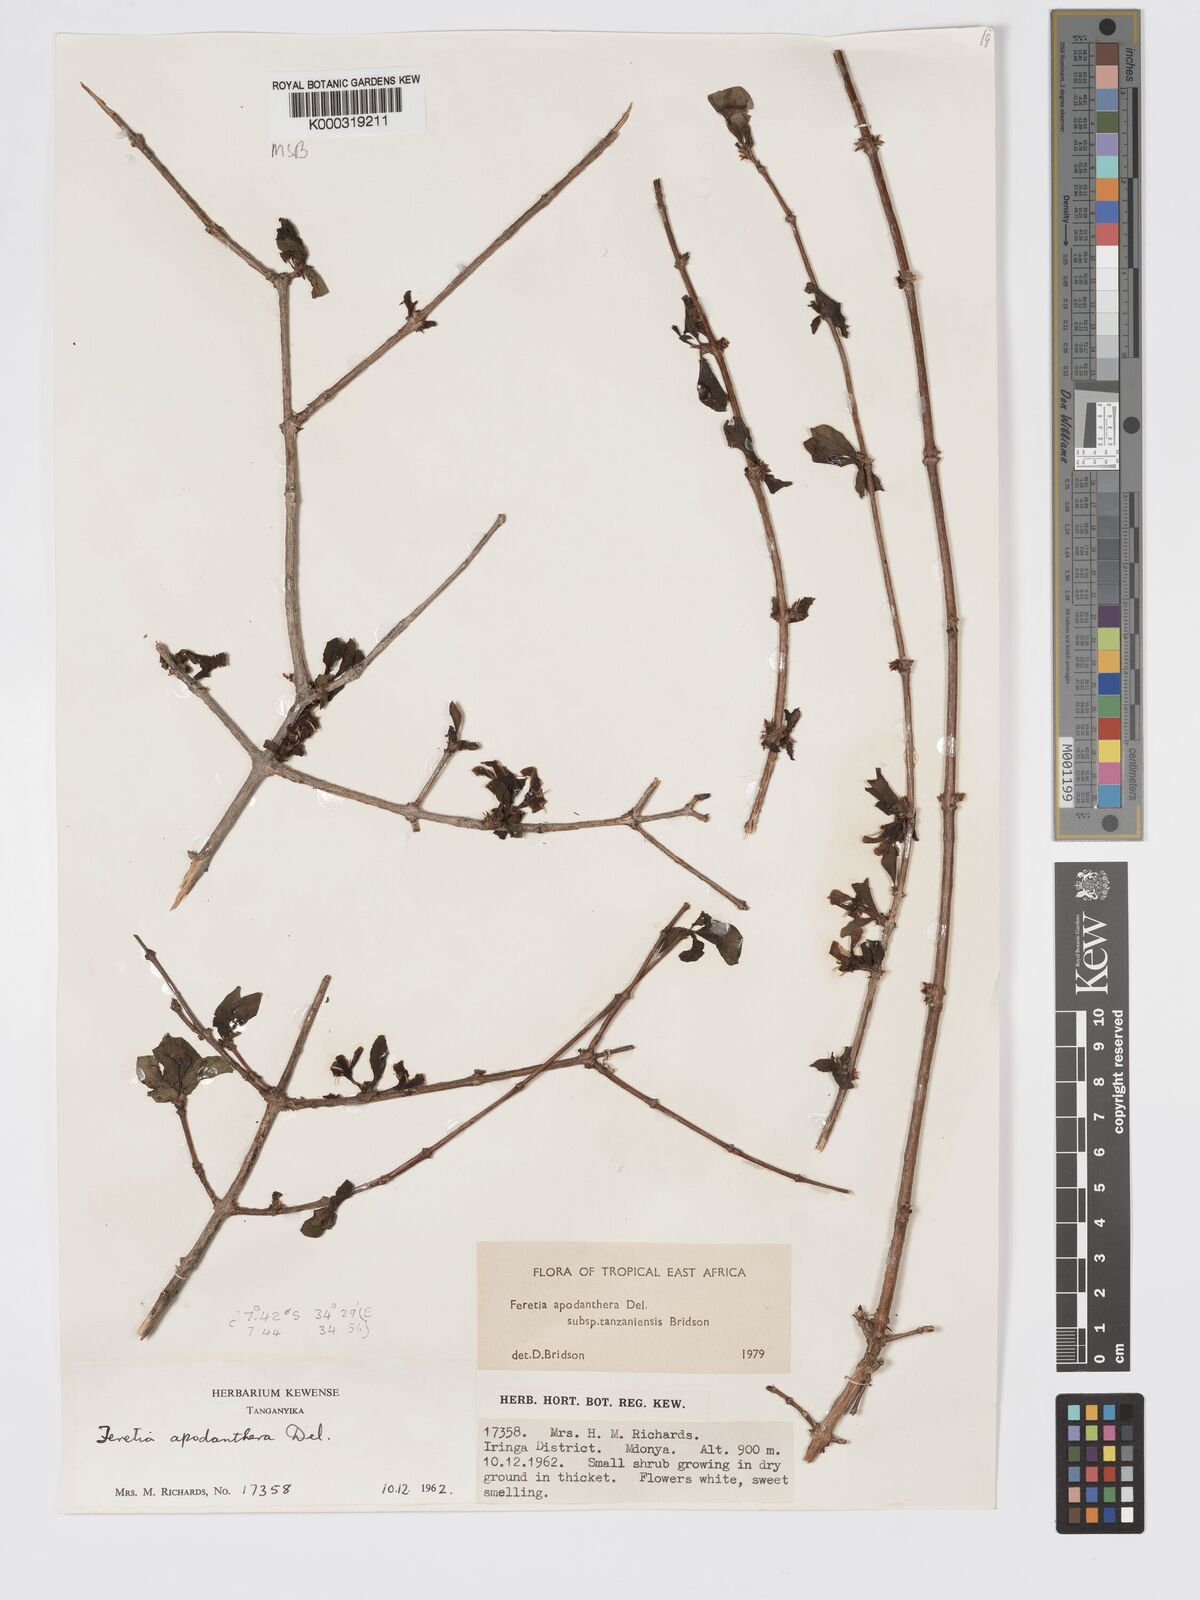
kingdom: Plantae
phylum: Tracheophyta
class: Magnoliopsida
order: Gentianales
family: Rubiaceae
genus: Feretia
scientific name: Feretia apodanthera
